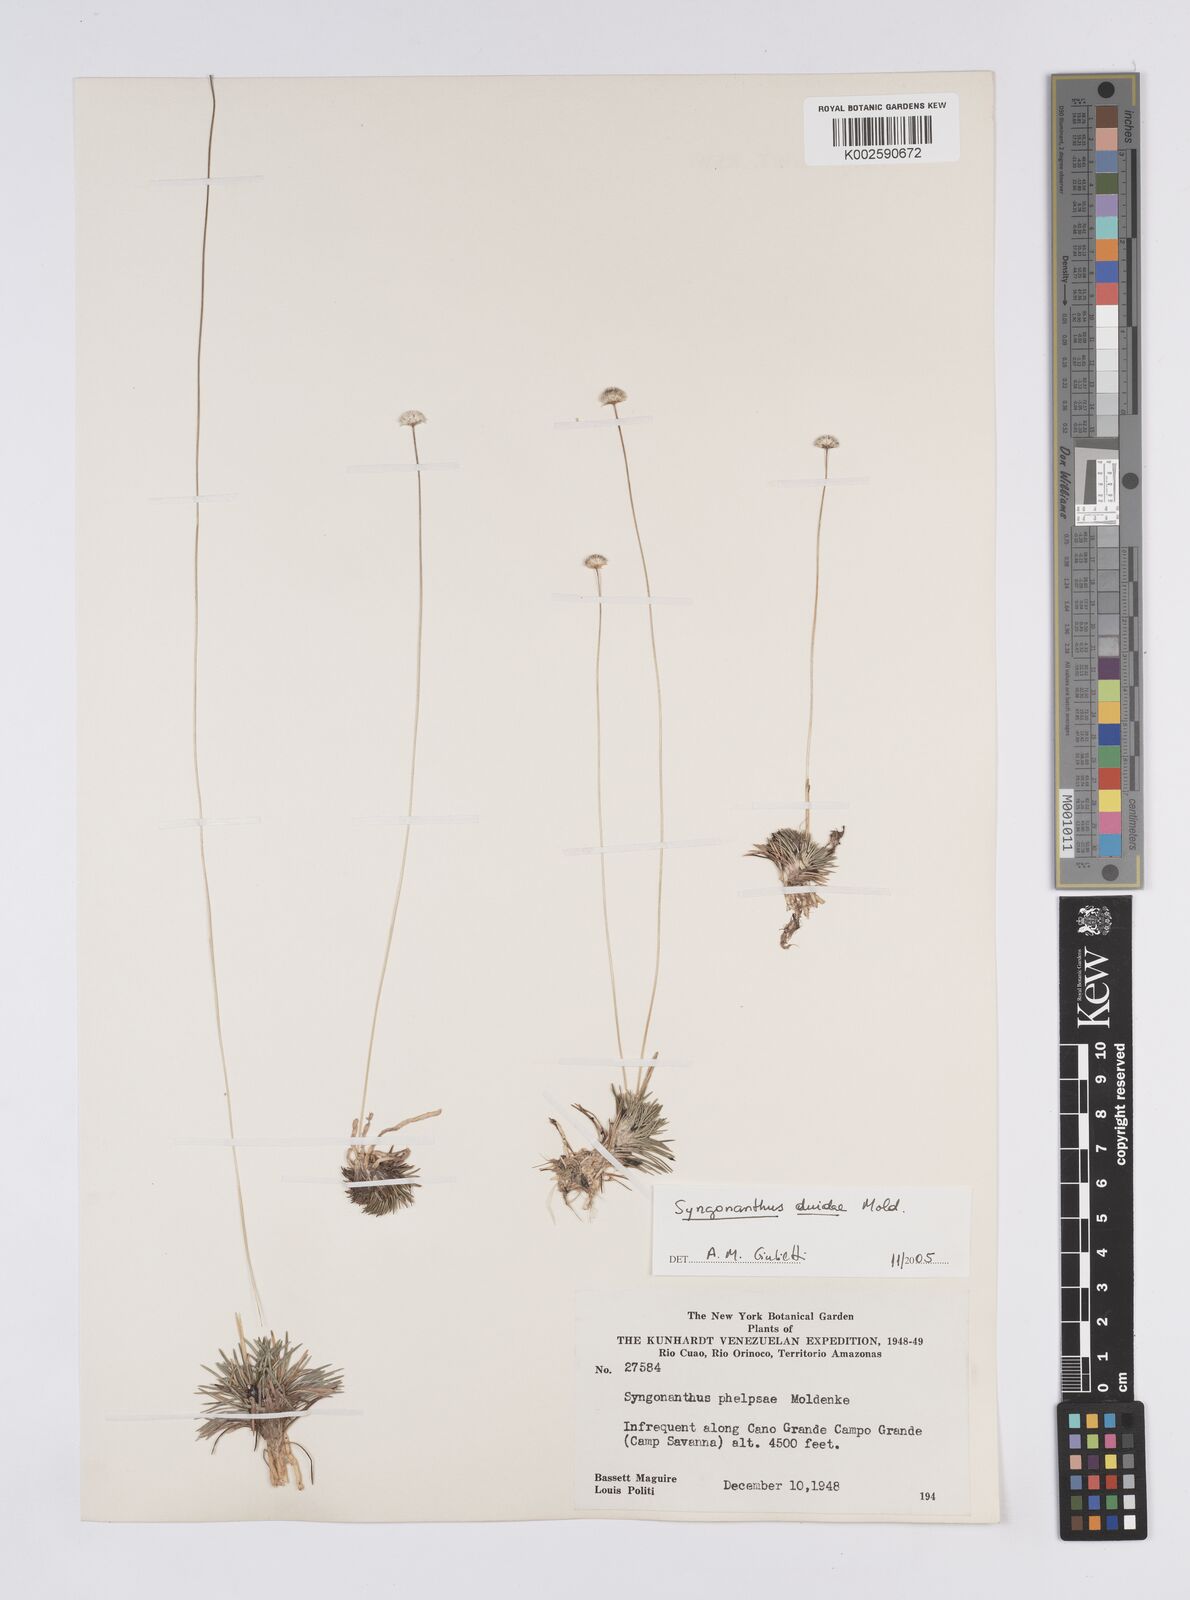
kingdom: Plantae
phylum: Tracheophyta
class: Liliopsida
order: Poales
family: Eriocaulaceae
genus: Syngonanthus
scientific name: Syngonanthus duidae
